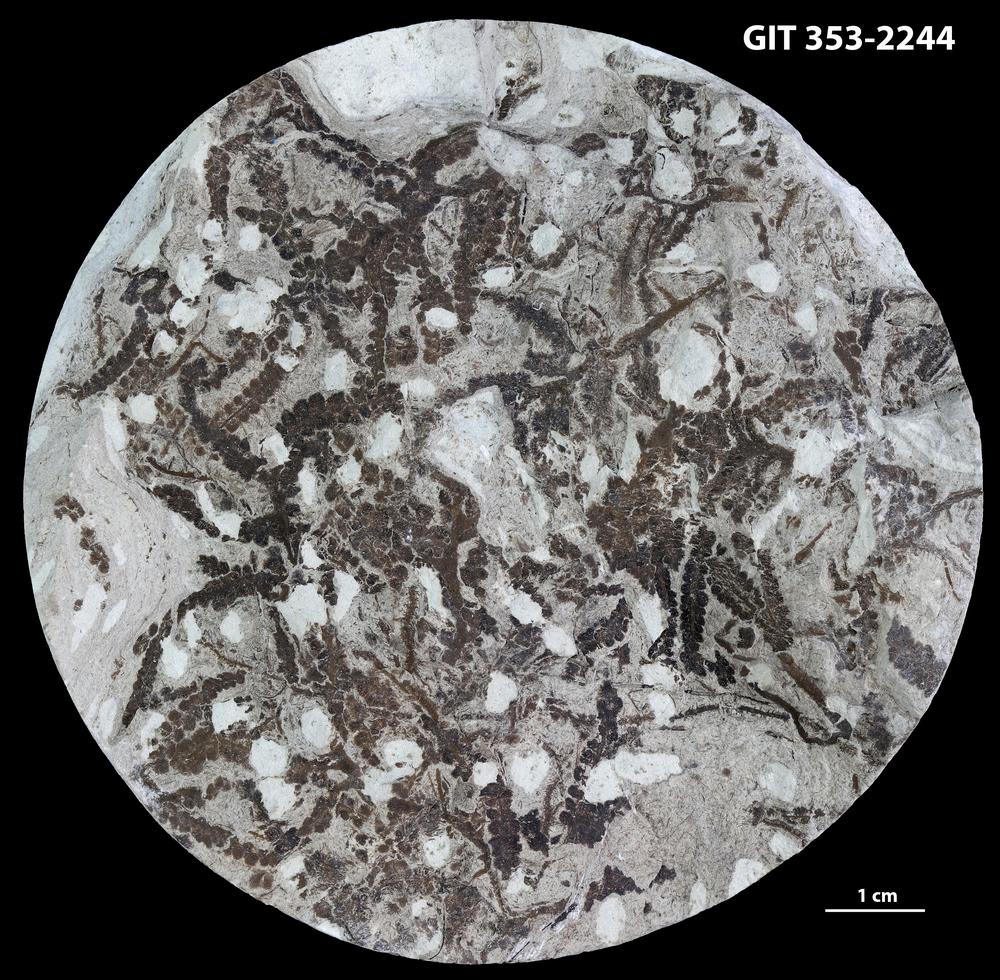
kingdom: Plantae
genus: Leveilleites
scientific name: Leveilleites hartnageli
